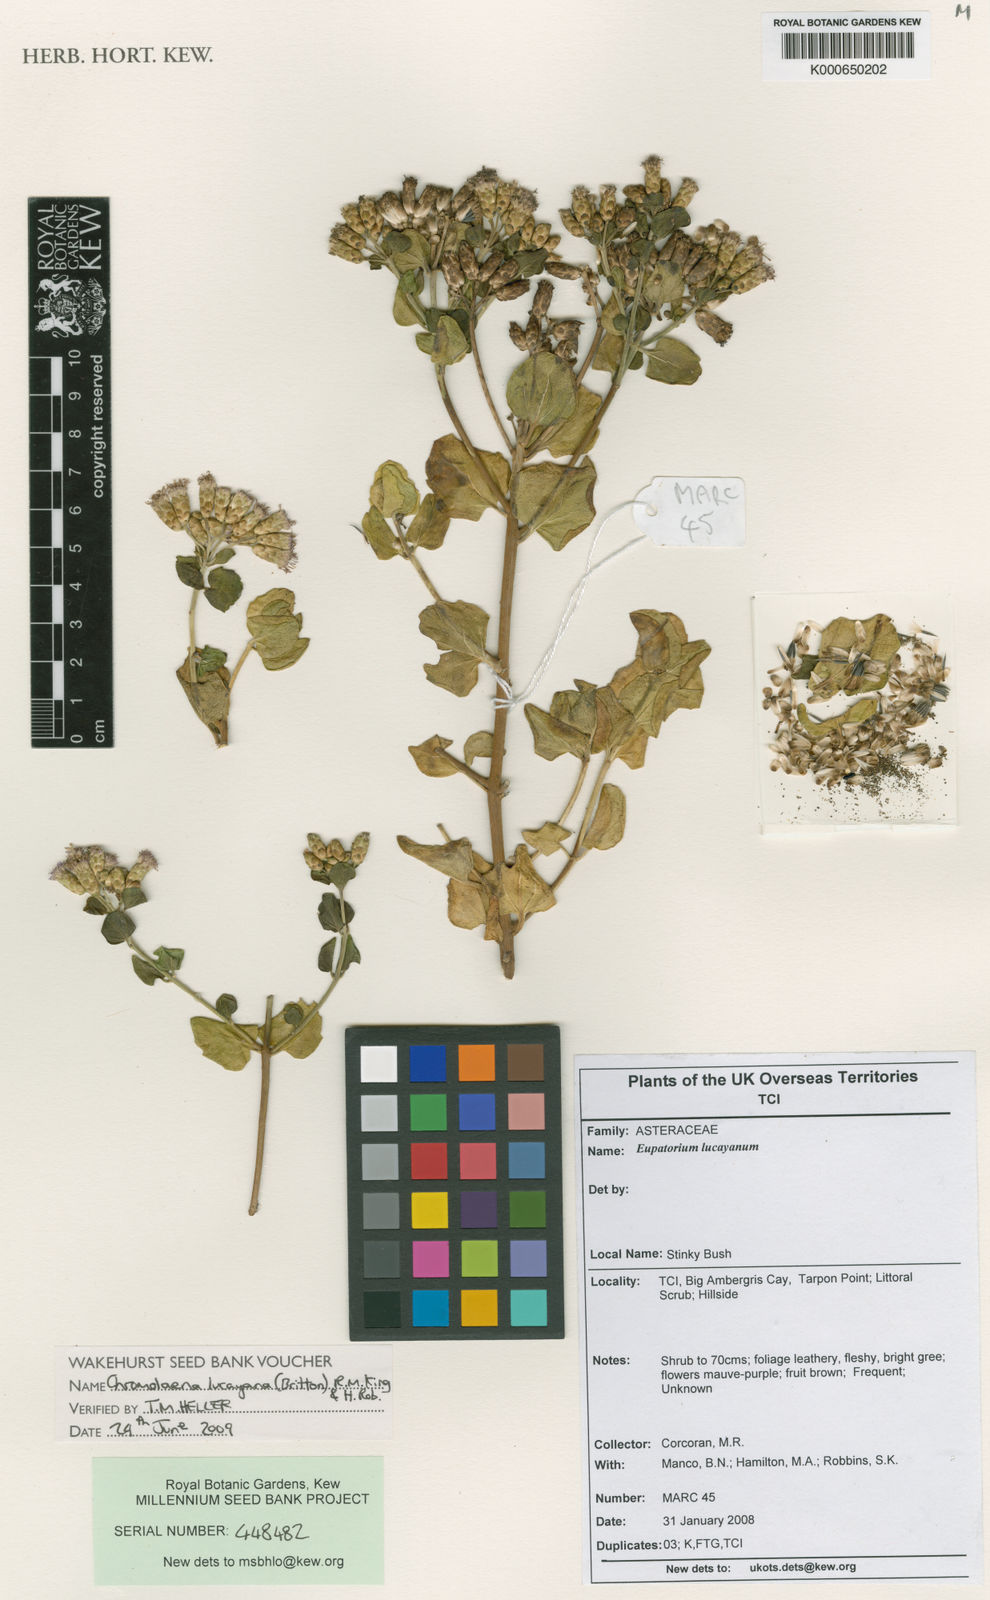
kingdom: Plantae
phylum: Tracheophyta
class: Magnoliopsida
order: Asterales
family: Asteraceae
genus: Chromolaena
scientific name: Chromolaena lucayana
